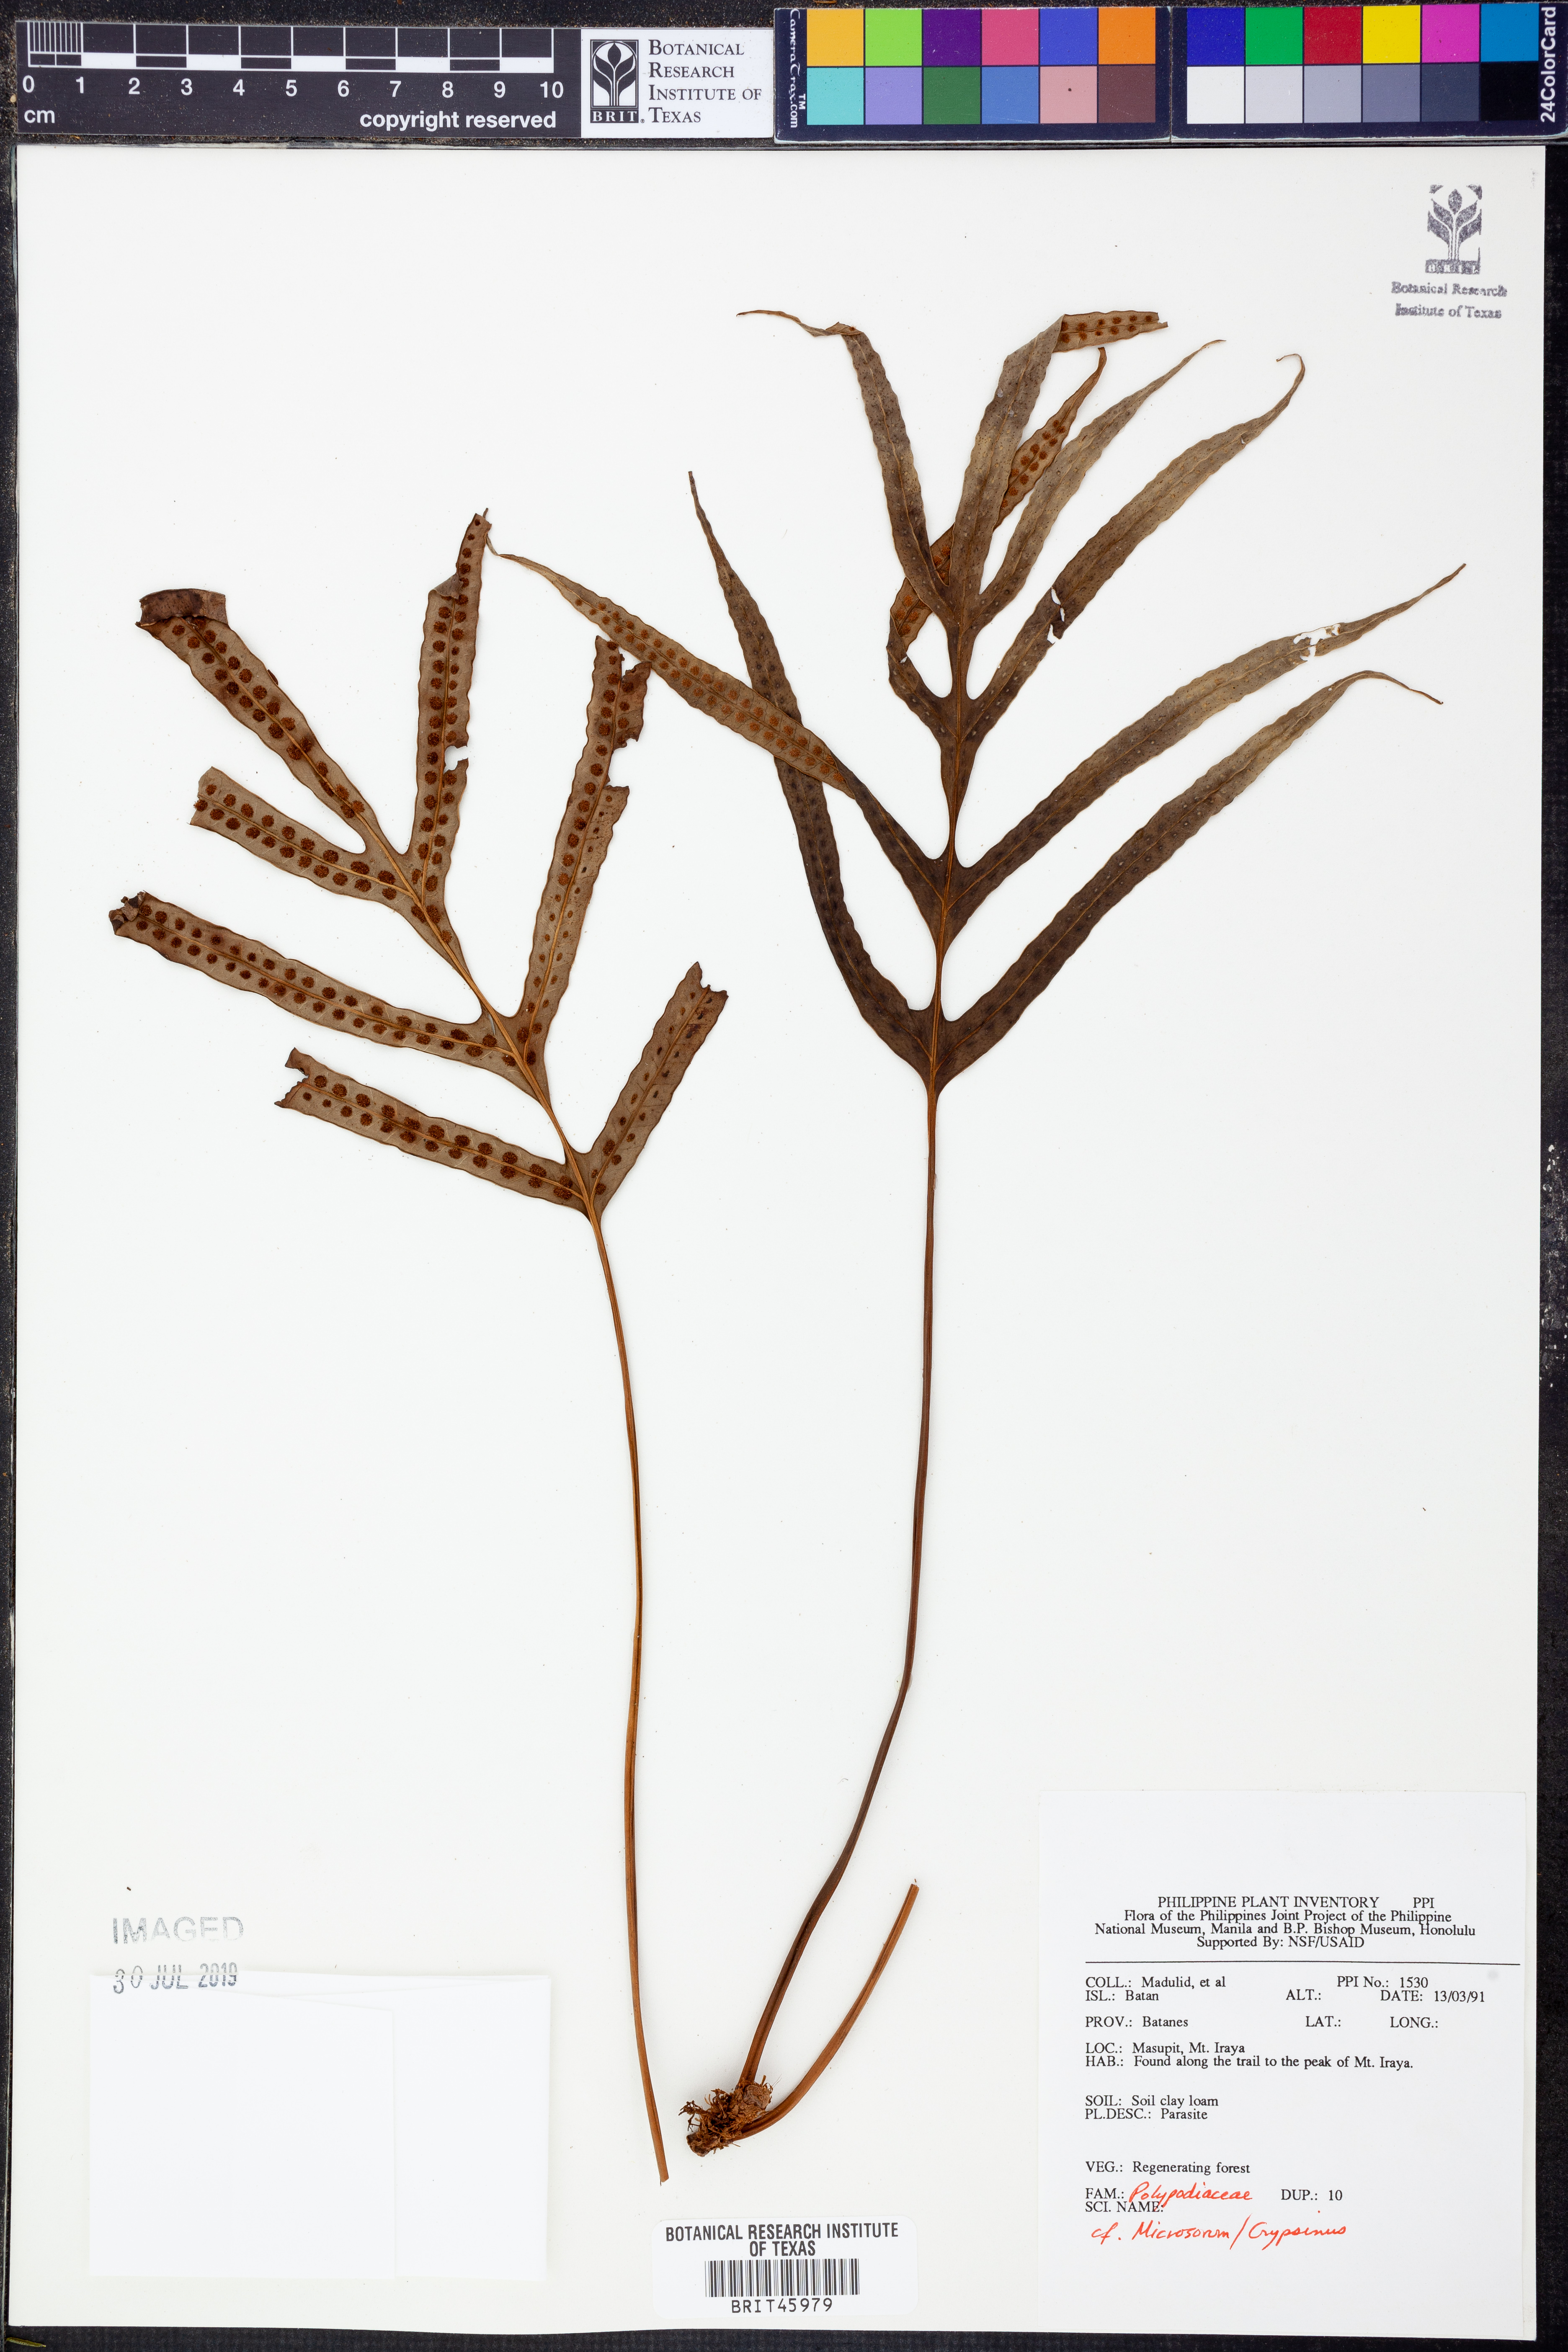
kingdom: Plantae
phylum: Tracheophyta
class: Polypodiopsida
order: Polypodiales
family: Polypodiaceae
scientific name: Polypodiaceae
